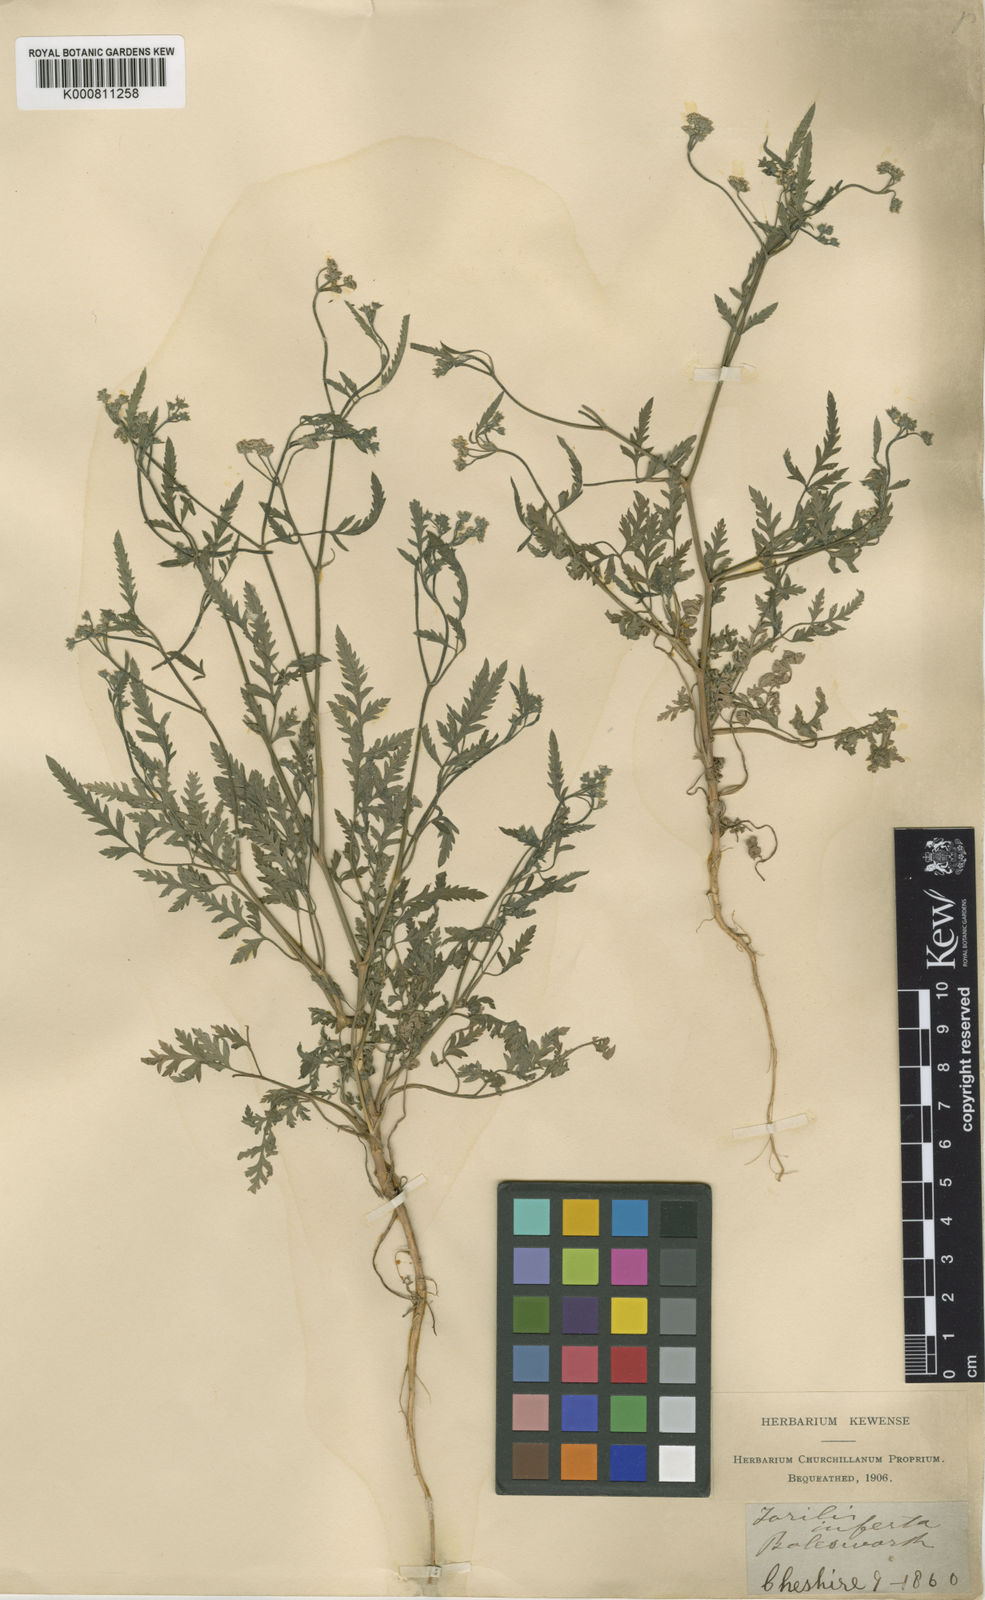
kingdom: Plantae
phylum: Tracheophyta
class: Magnoliopsida
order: Apiales
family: Apiaceae
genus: Torilis
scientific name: Torilis arvensis
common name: Spreading hedge-parsley
